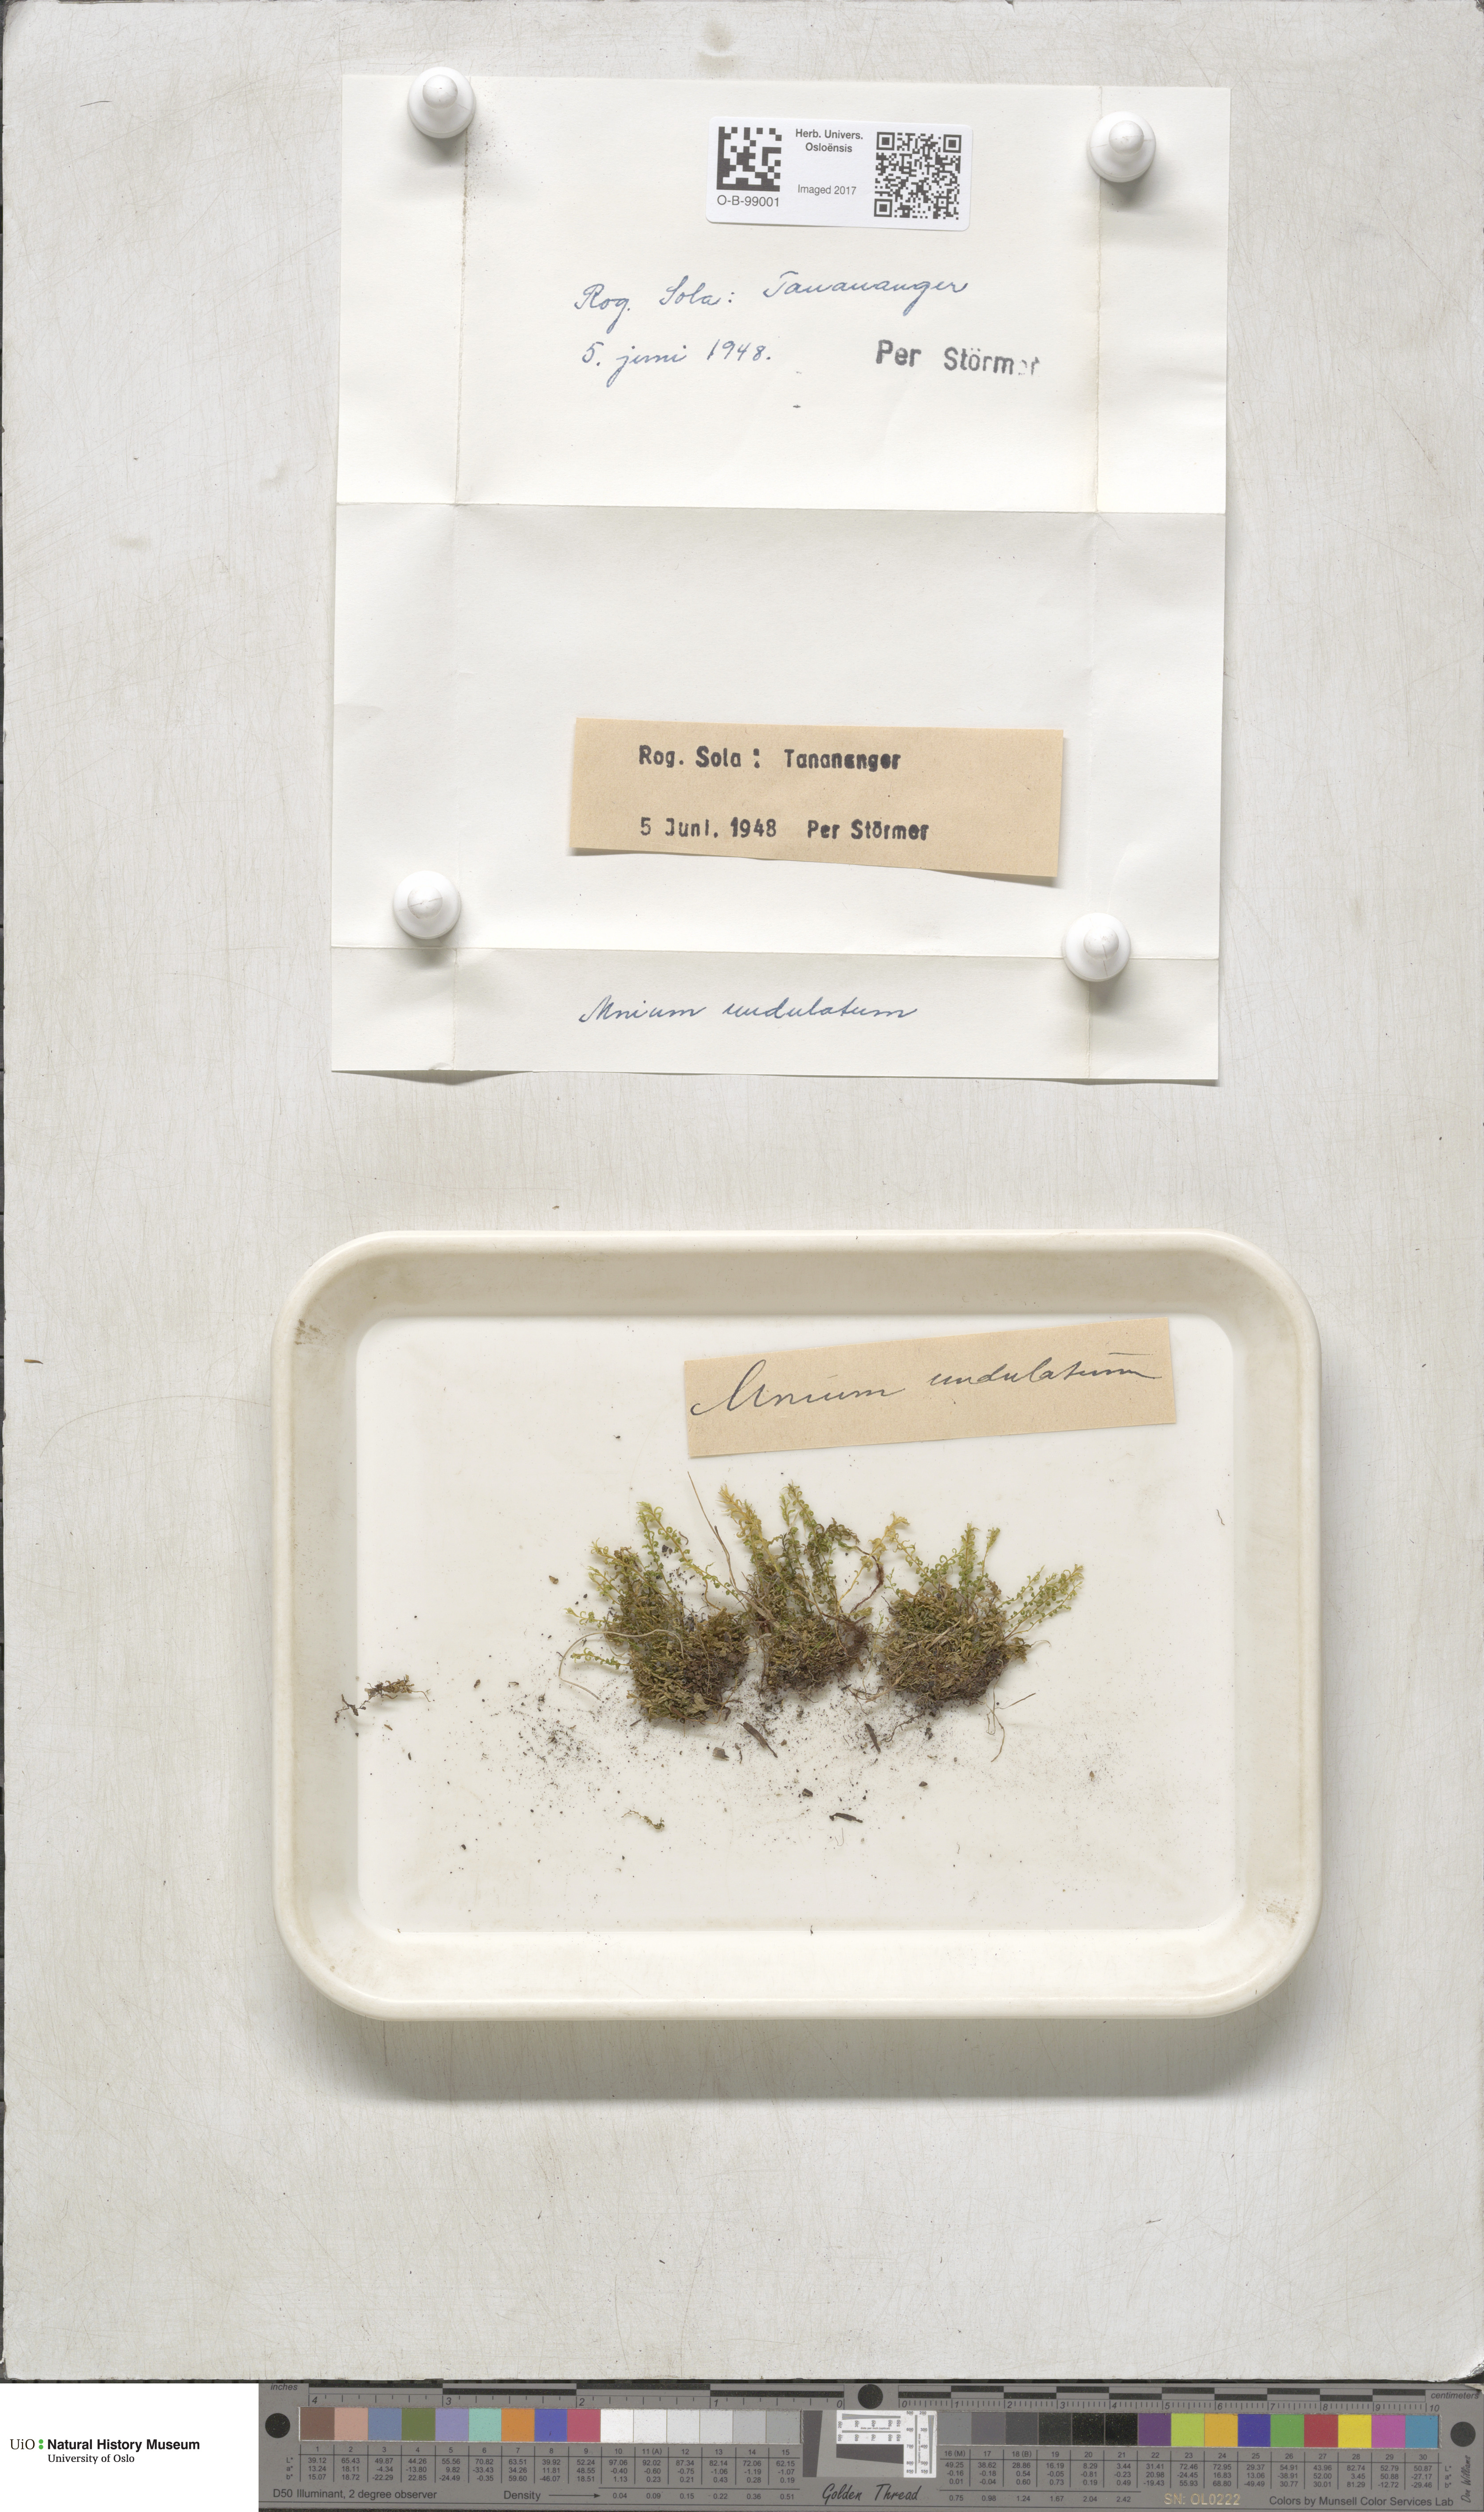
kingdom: Plantae
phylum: Bryophyta
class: Bryopsida
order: Bryales
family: Mniaceae
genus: Plagiomnium
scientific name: Plagiomnium undulatum
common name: Hart's-tongue thyme-moss
